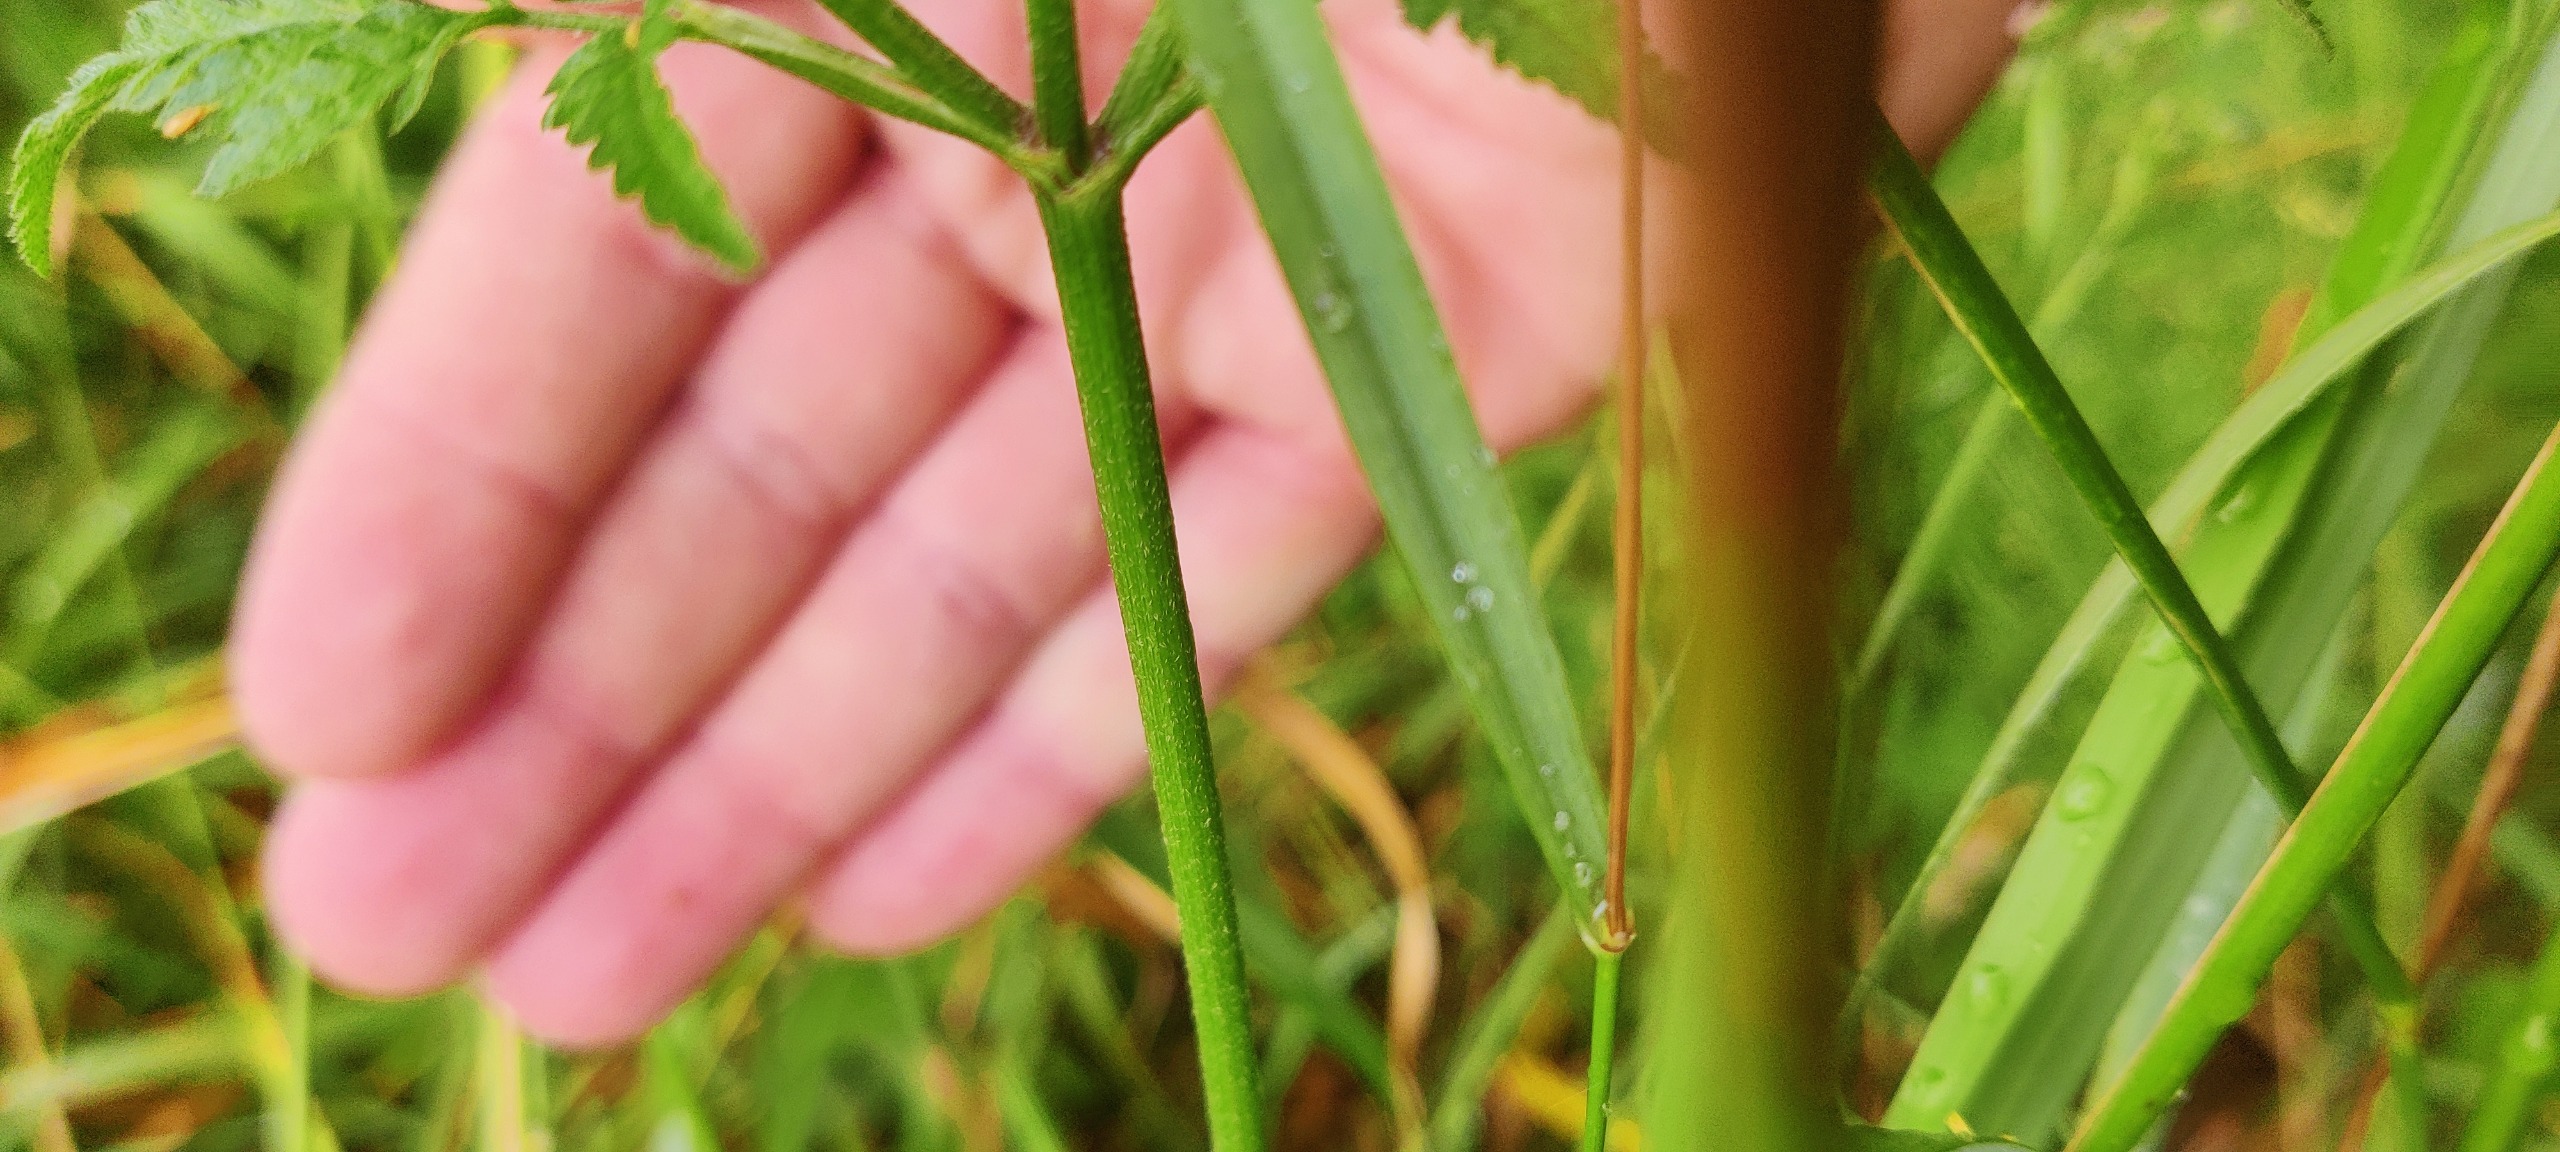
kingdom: Plantae
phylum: Tracheophyta
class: Magnoliopsida
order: Apiales
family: Apiaceae
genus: Torilis
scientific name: Torilis japonica
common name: Hvas randfrø
